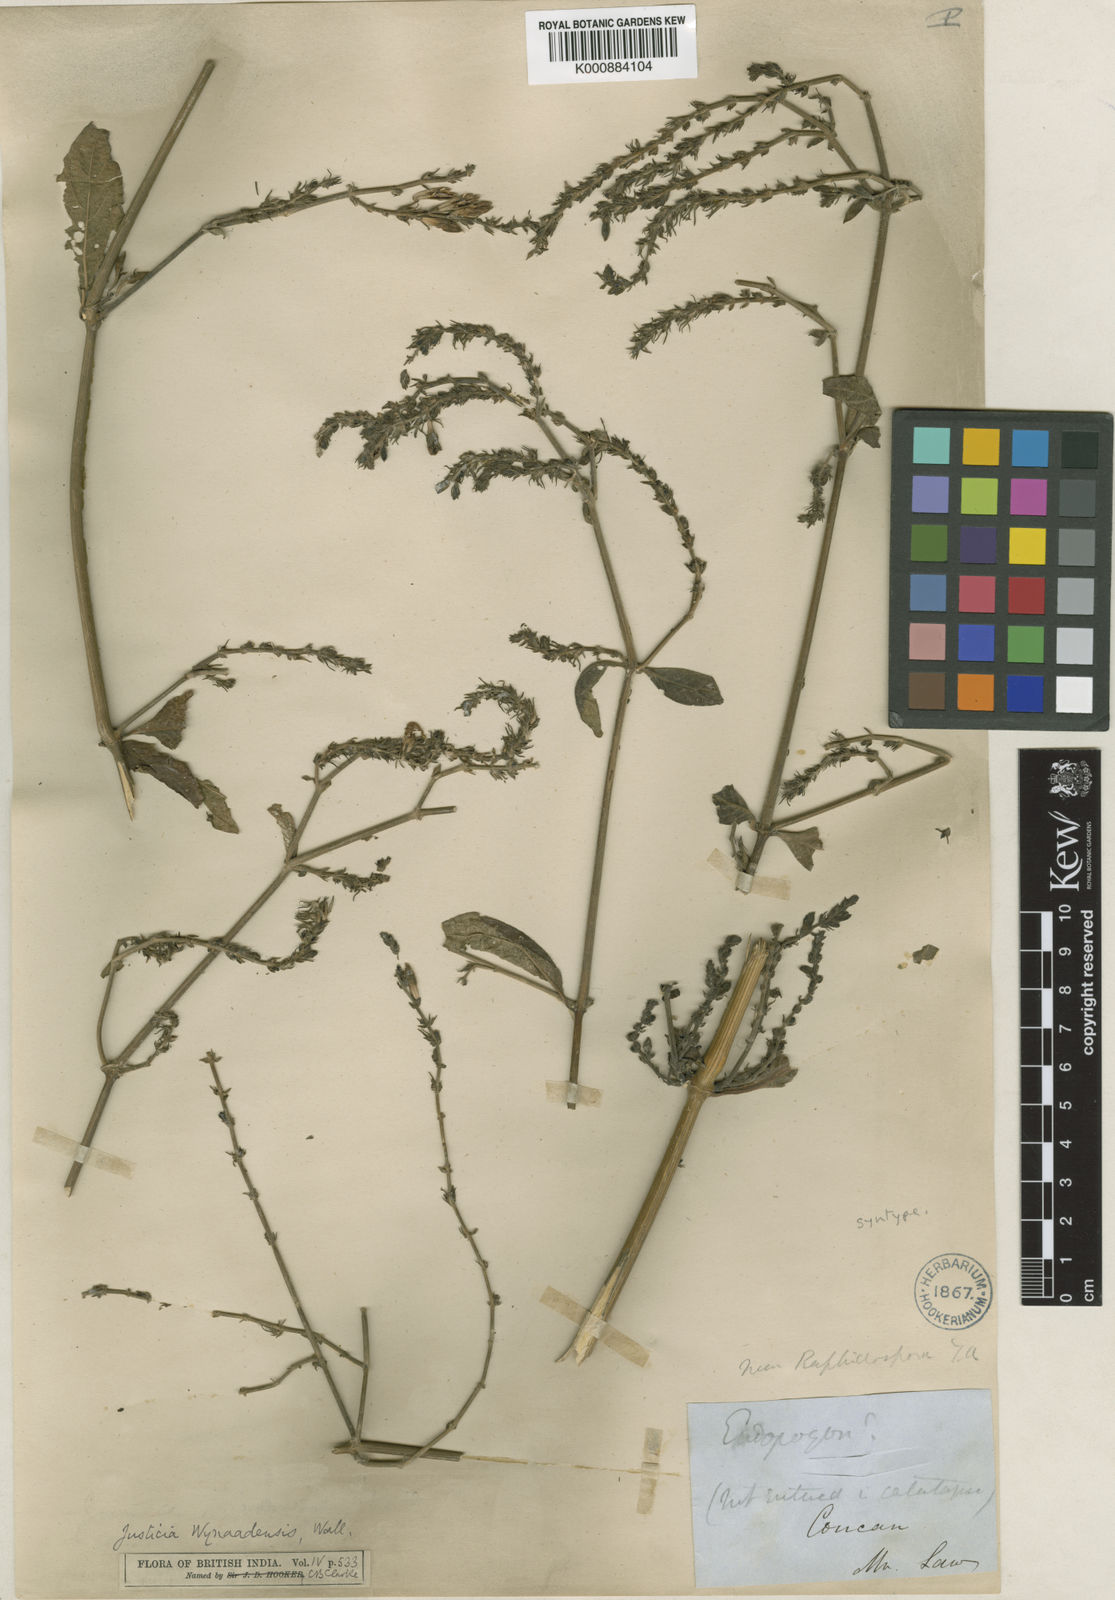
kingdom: Plantae
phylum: Tracheophyta
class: Magnoliopsida
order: Lamiales
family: Acanthaceae
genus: Justicia
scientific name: Justicia
